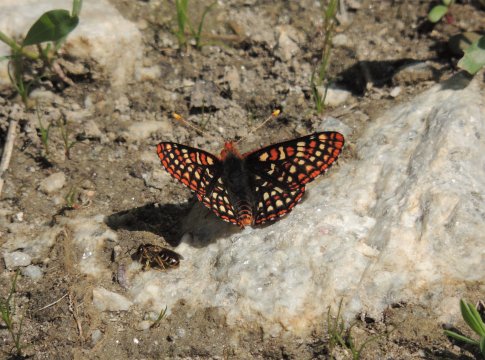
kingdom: Animalia
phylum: Arthropoda
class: Insecta
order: Lepidoptera
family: Nymphalidae
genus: Occidryas
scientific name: Occidryas anicia
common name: Anicia Checkerspot
